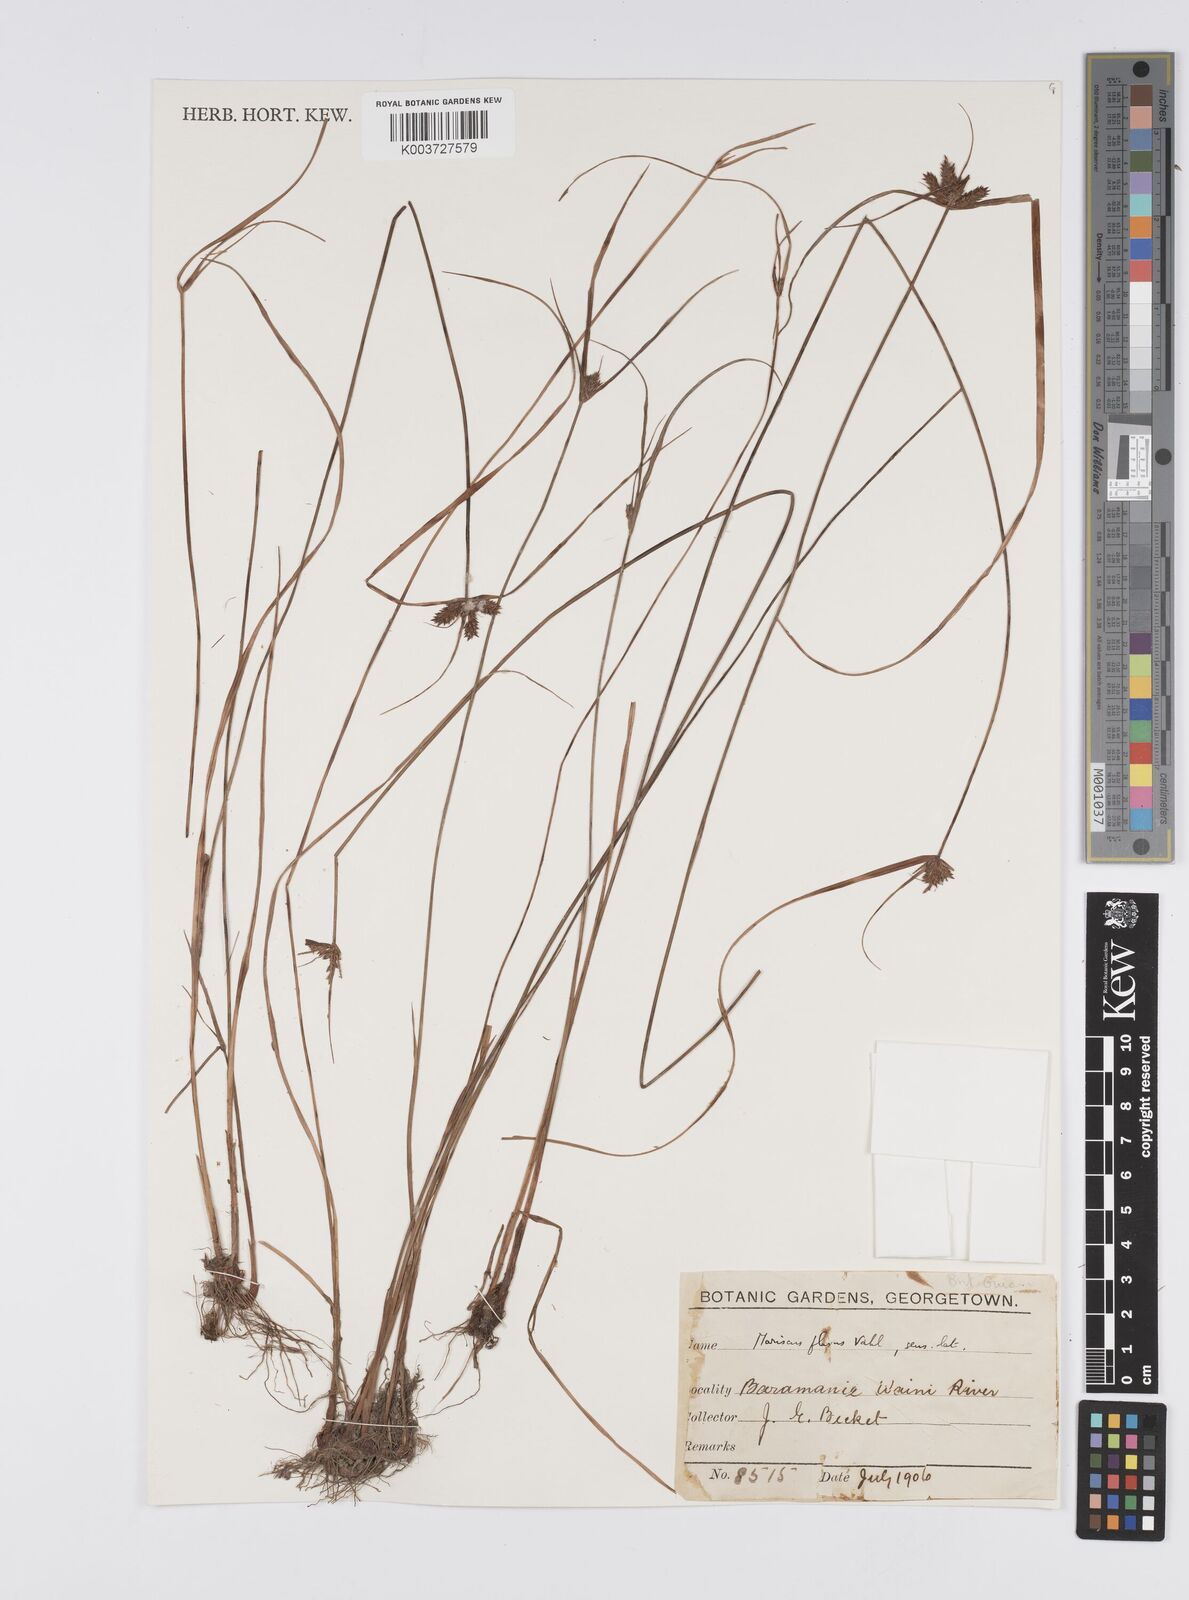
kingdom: Plantae
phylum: Tracheophyta
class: Liliopsida
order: Poales
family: Cyperaceae
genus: Cyperus
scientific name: Cyperus aggregatus
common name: Inflatedscale flatsedge
